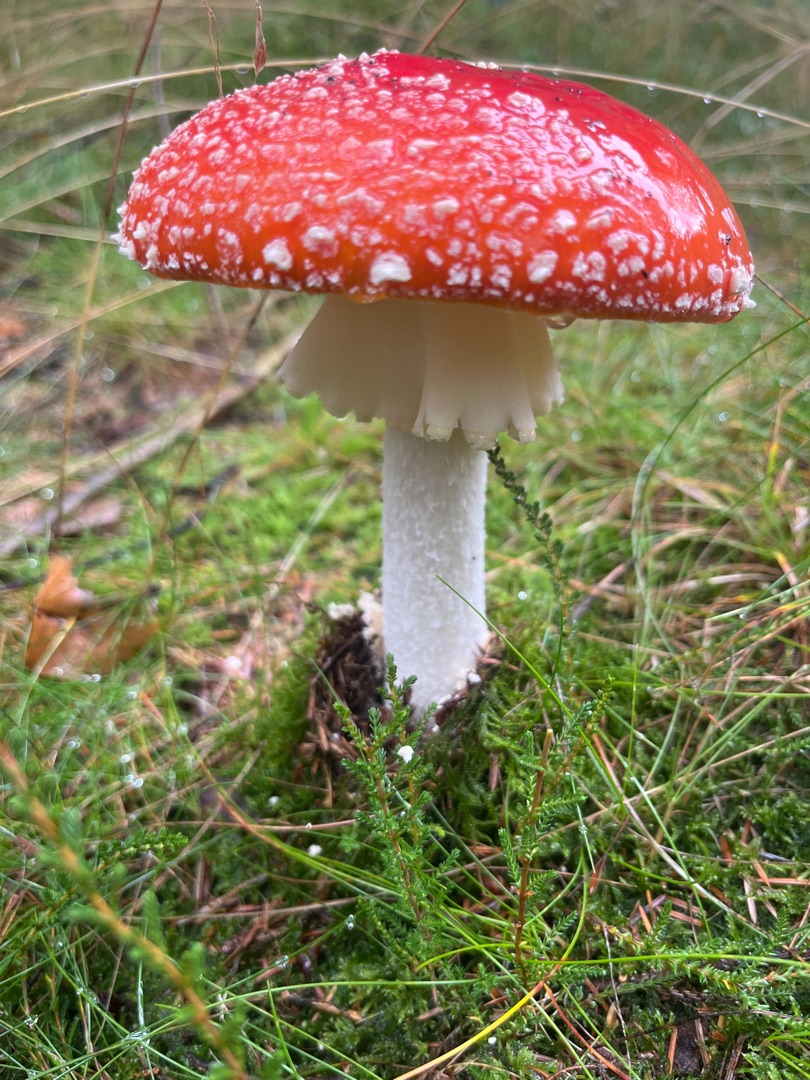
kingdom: Fungi
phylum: Basidiomycota
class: Agaricomycetes
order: Agaricales
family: Amanitaceae
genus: Amanita
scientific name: Amanita muscaria
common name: Rød fluesvamp
